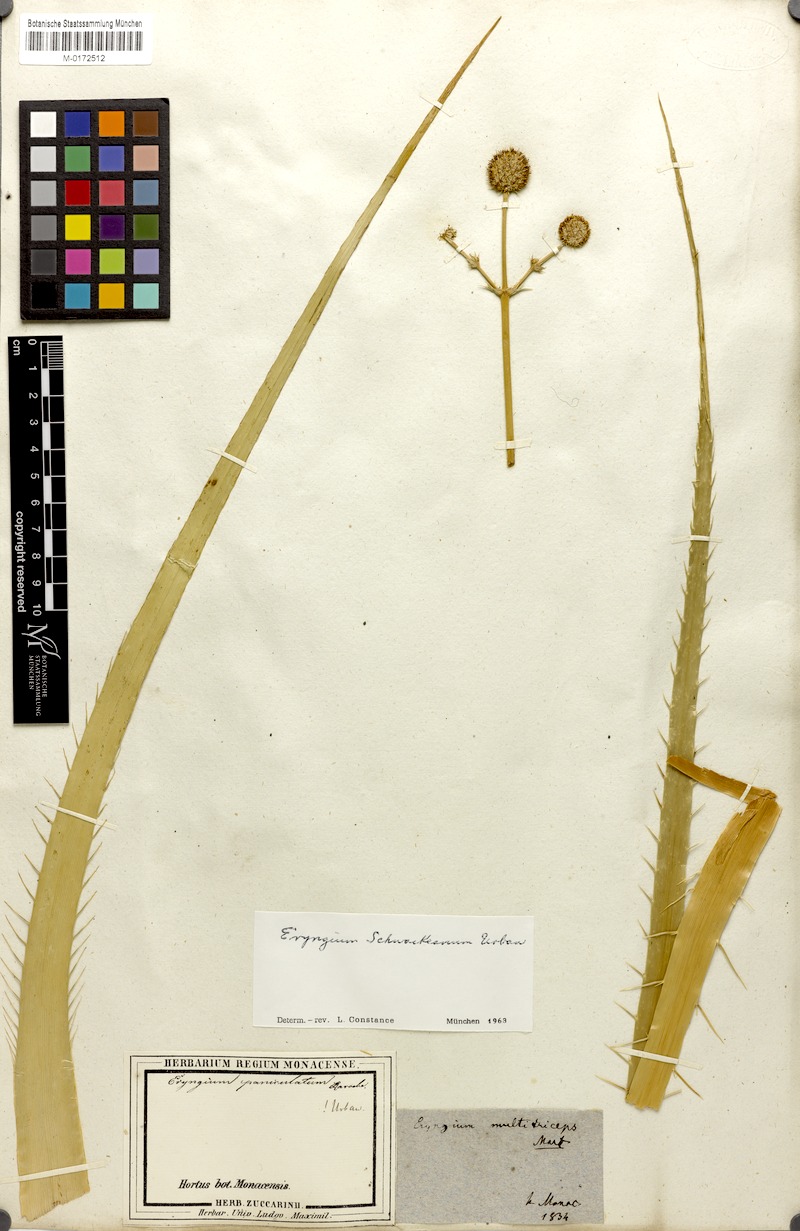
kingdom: Plantae
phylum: Tracheophyta
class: Magnoliopsida
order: Apiales
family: Apiaceae
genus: Eryngium
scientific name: Eryngium horridum
